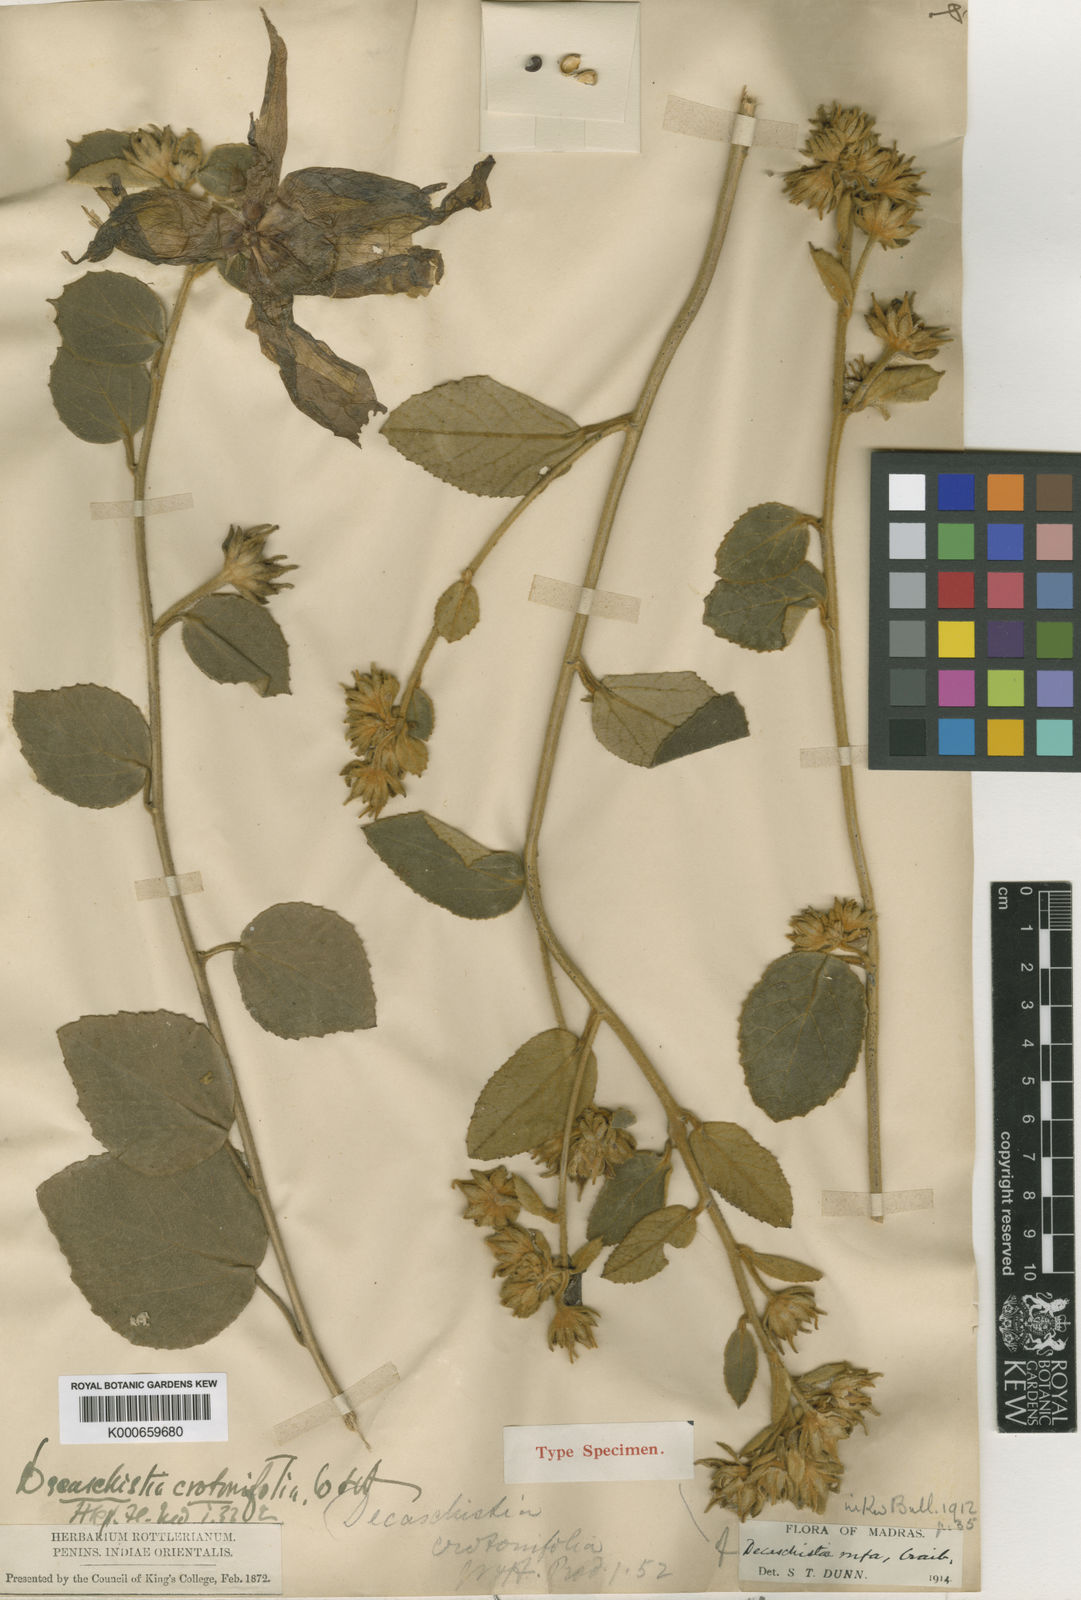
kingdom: Plantae
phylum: Tracheophyta
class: Magnoliopsida
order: Malvales
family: Malvaceae
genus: Decaschistia
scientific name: Decaschistia rufa
